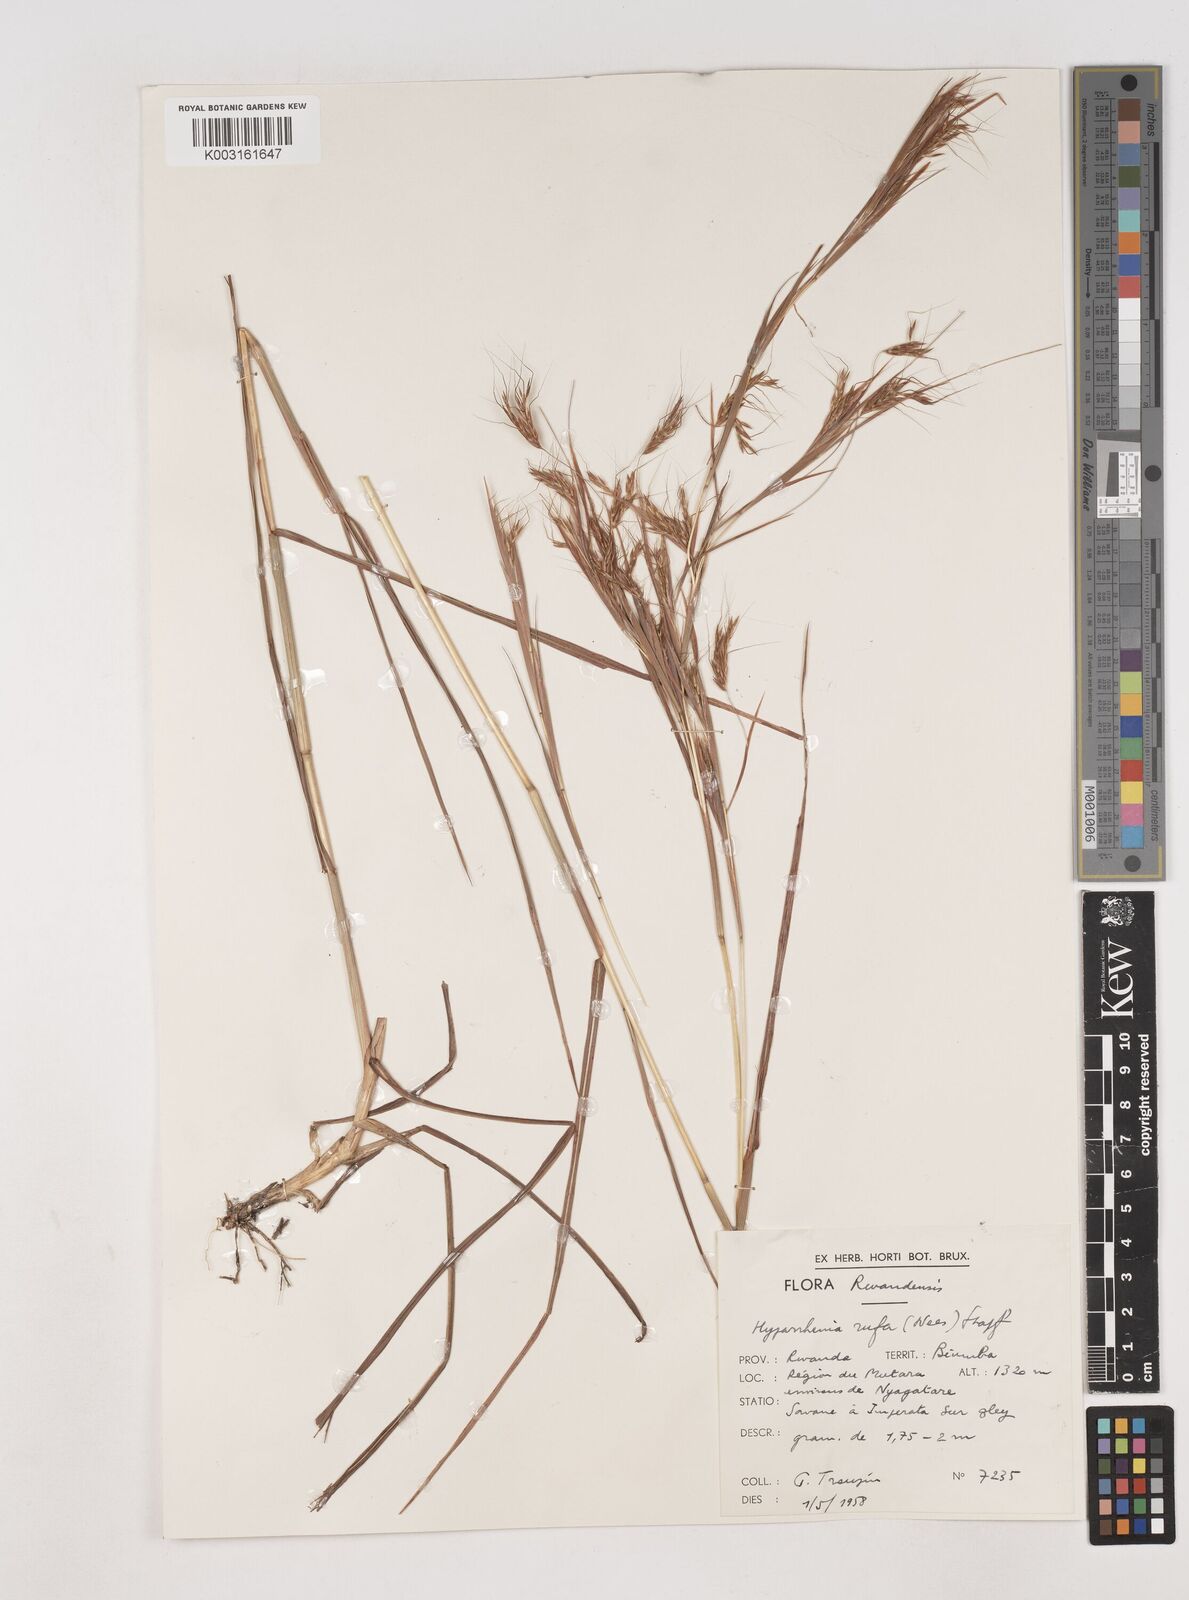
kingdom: Plantae
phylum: Tracheophyta
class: Liliopsida
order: Poales
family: Poaceae
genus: Hyparrhenia
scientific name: Hyparrhenia rufa
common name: Jaraguagrass
